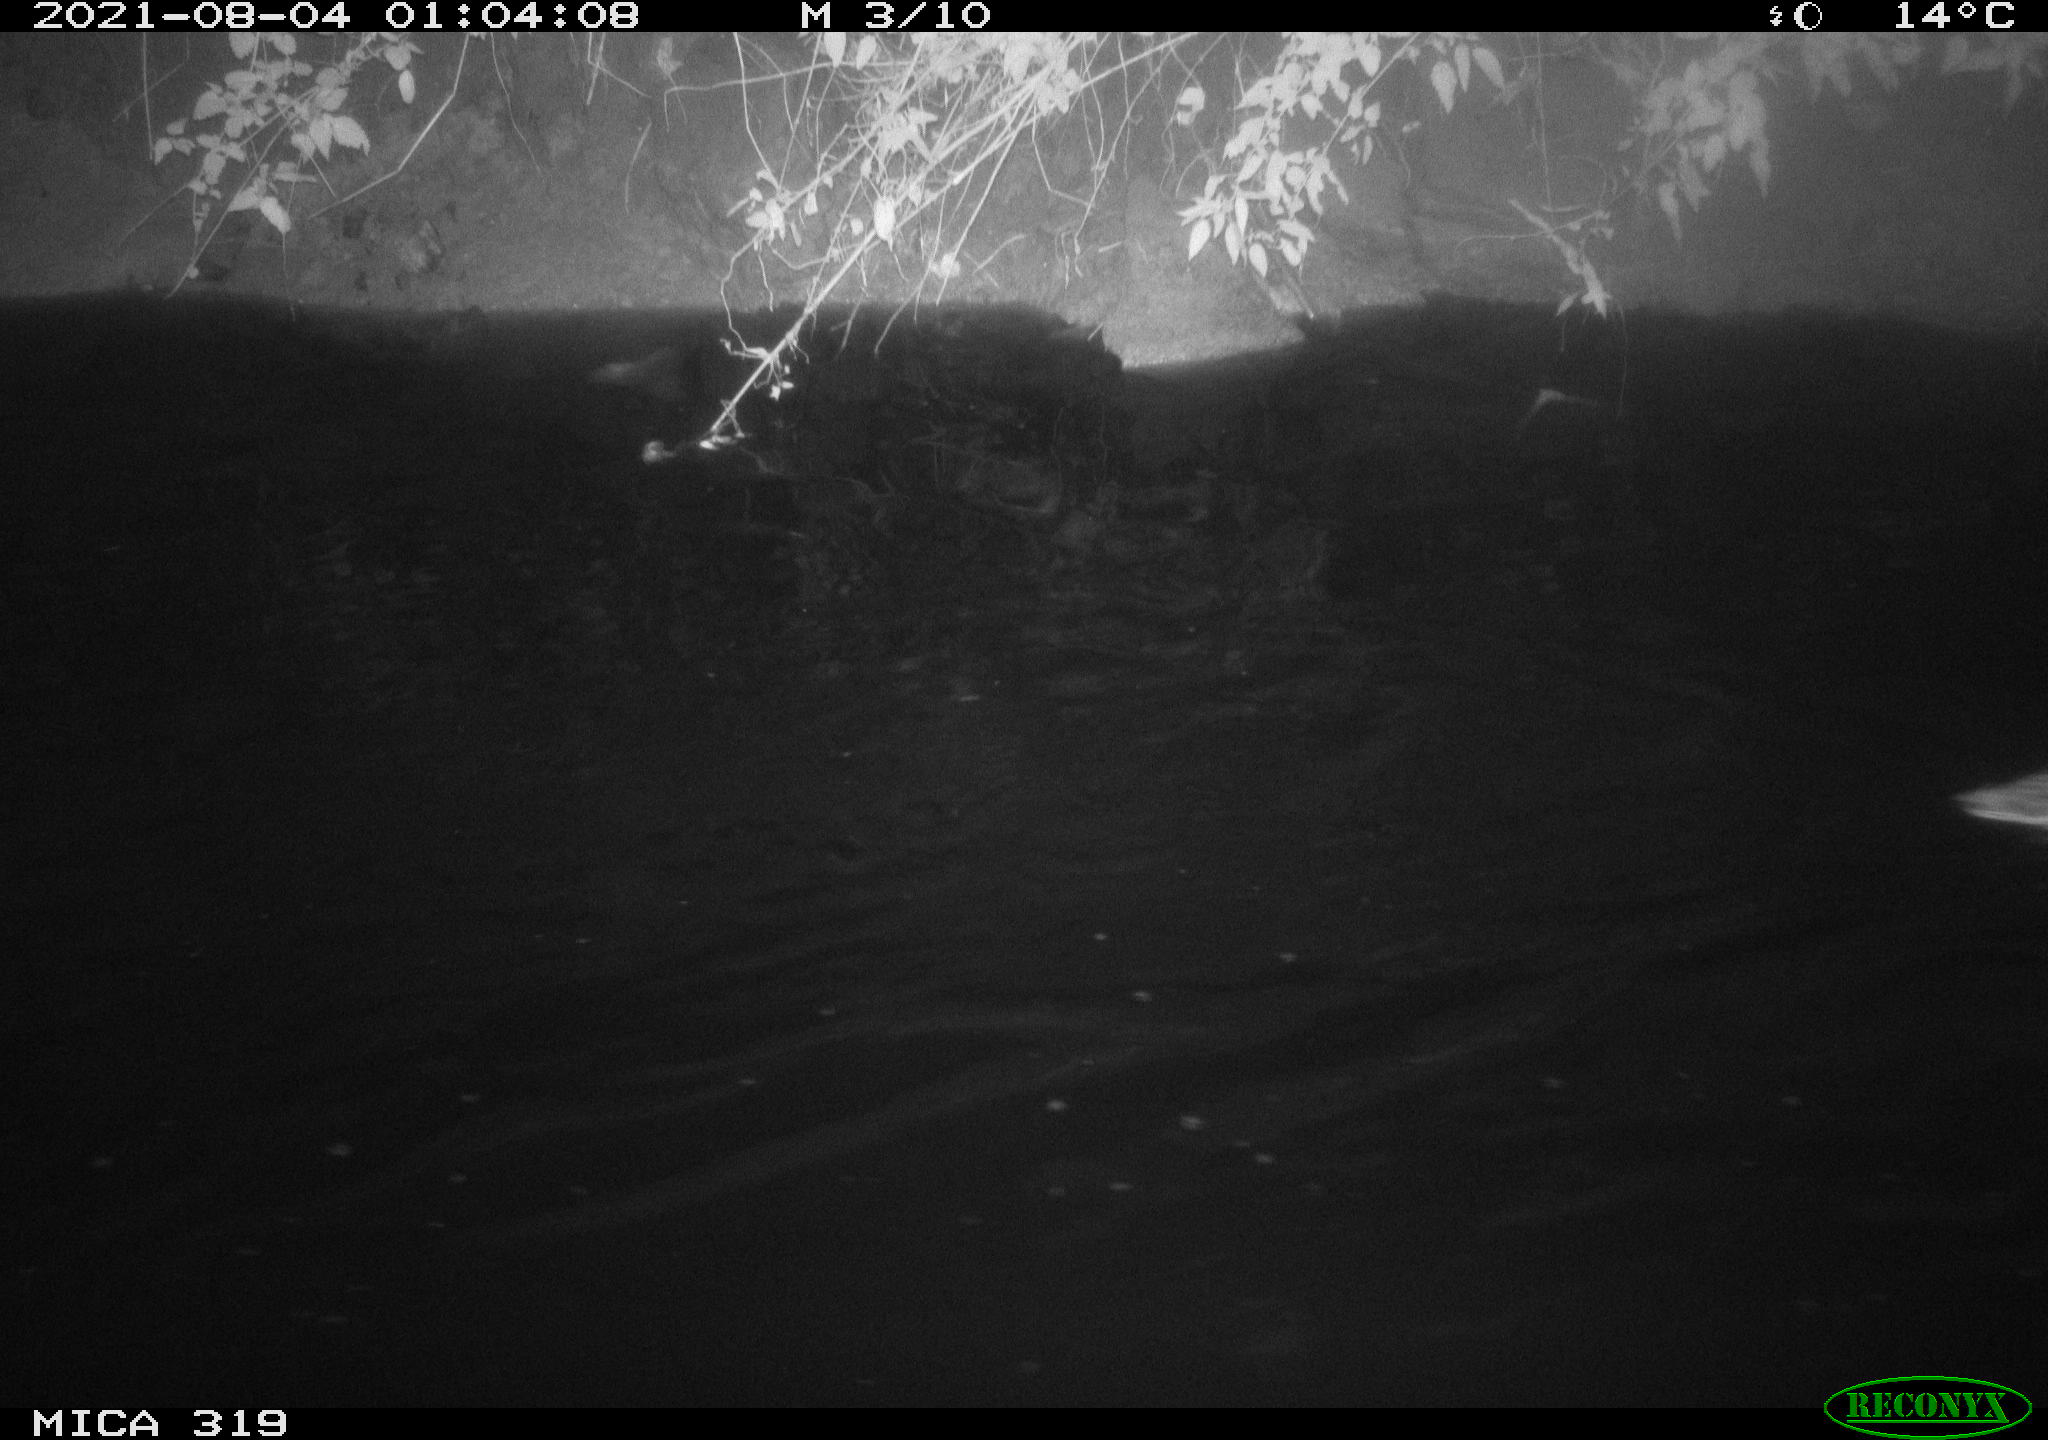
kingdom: Animalia
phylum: Chordata
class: Aves
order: Anseriformes
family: Anatidae
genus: Anas
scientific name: Anas platyrhynchos
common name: Mallard
